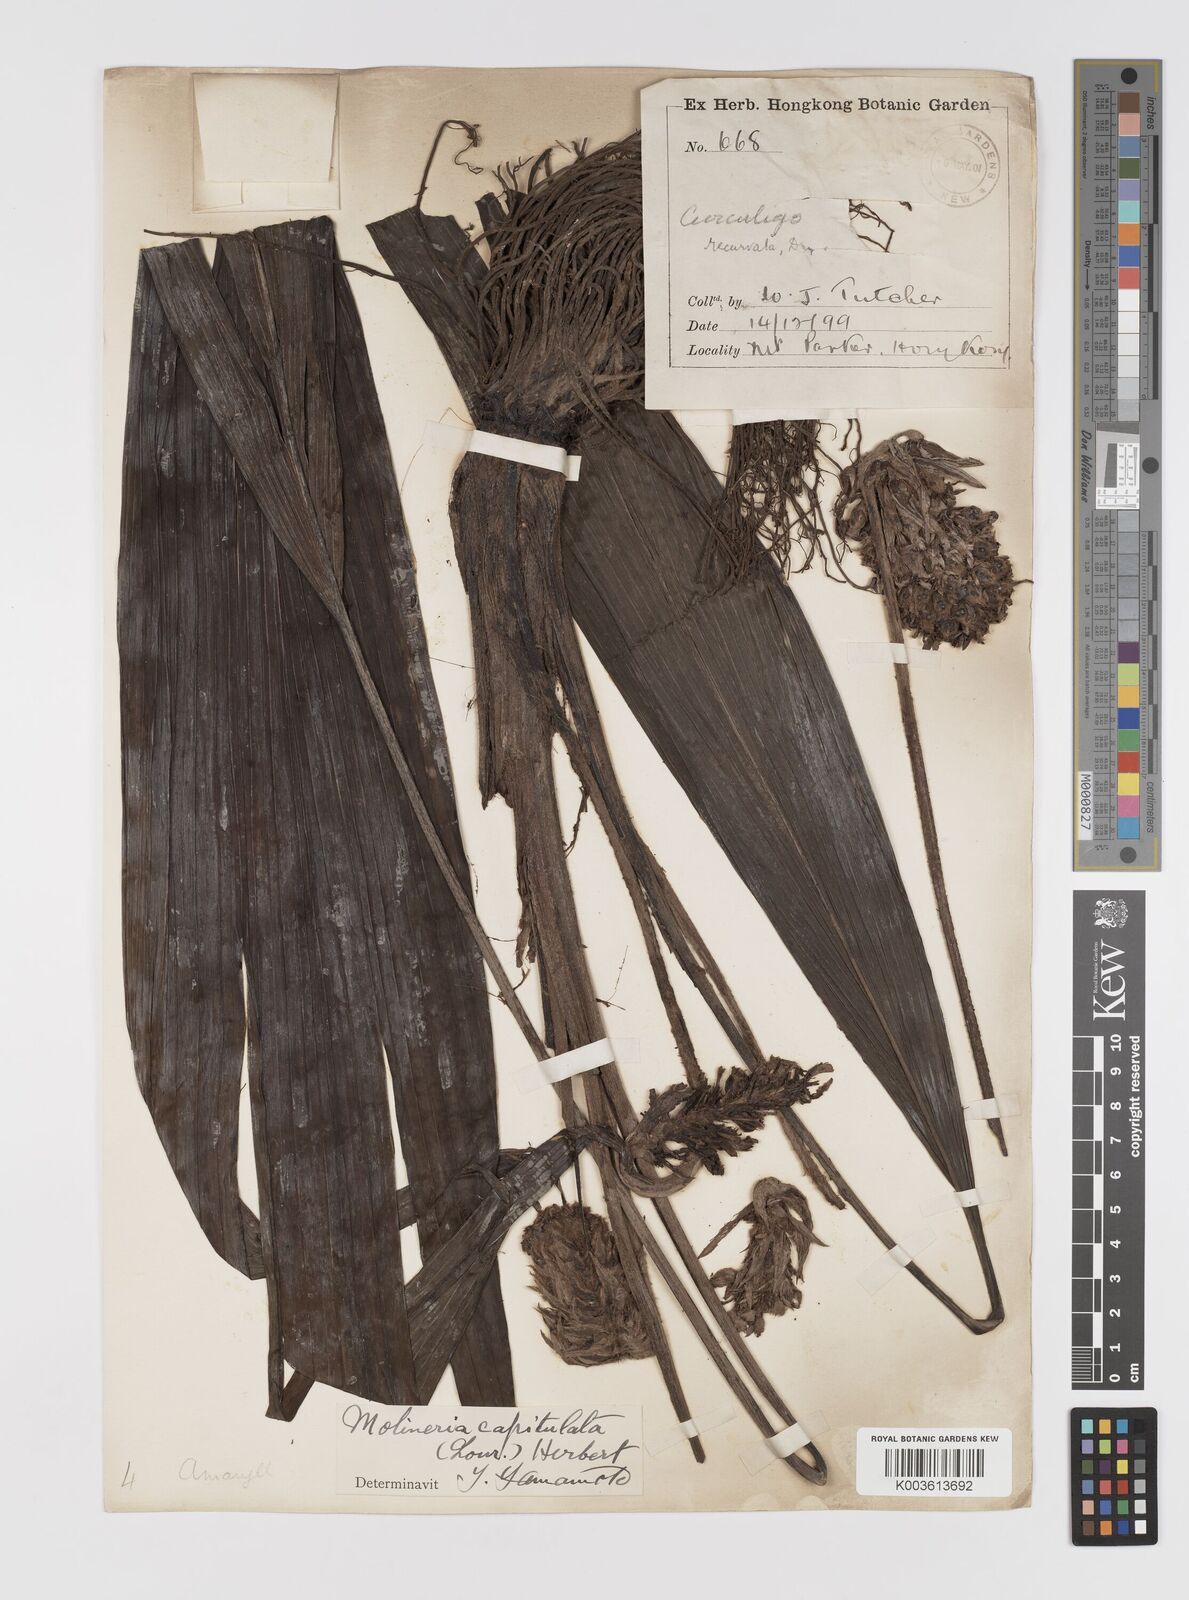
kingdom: Plantae
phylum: Tracheophyta
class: Liliopsida
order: Asparagales
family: Hypoxidaceae
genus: Curculigo
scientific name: Curculigo capitulata
